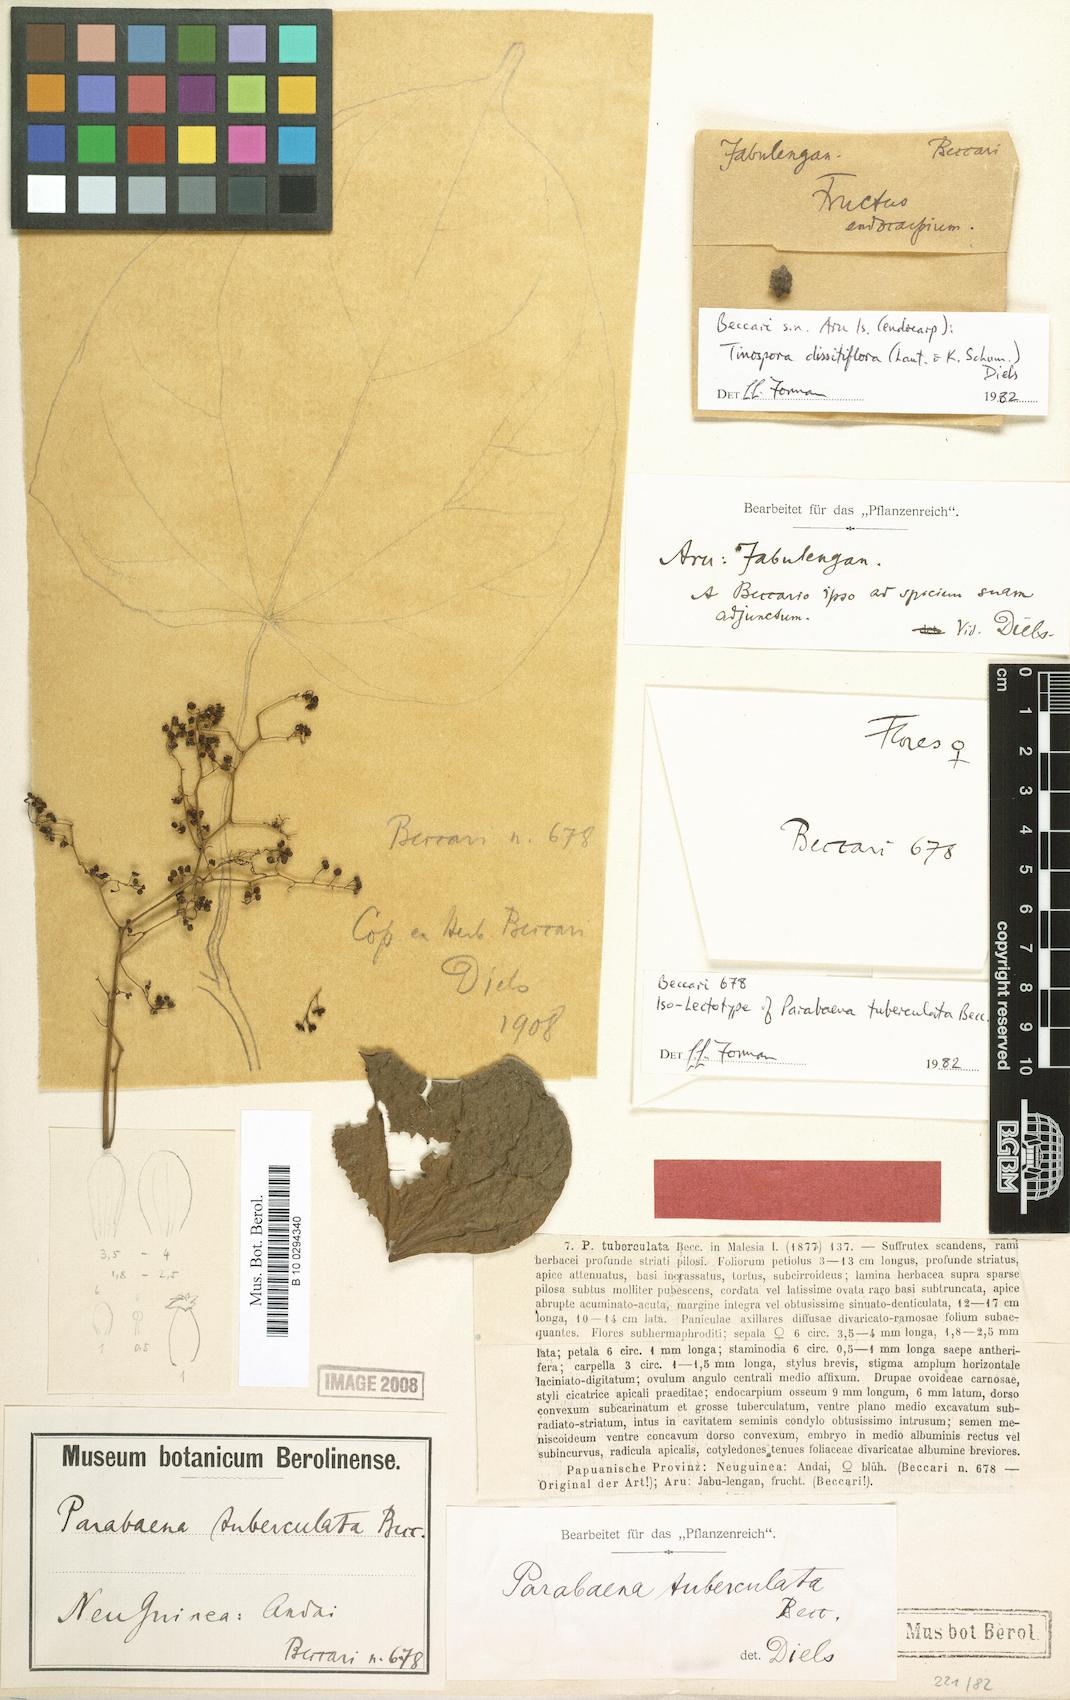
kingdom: Plantae
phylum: Tracheophyta
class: Magnoliopsida
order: Ranunculales
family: Menispermaceae
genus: Parabaena
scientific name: Parabaena tuberculata
